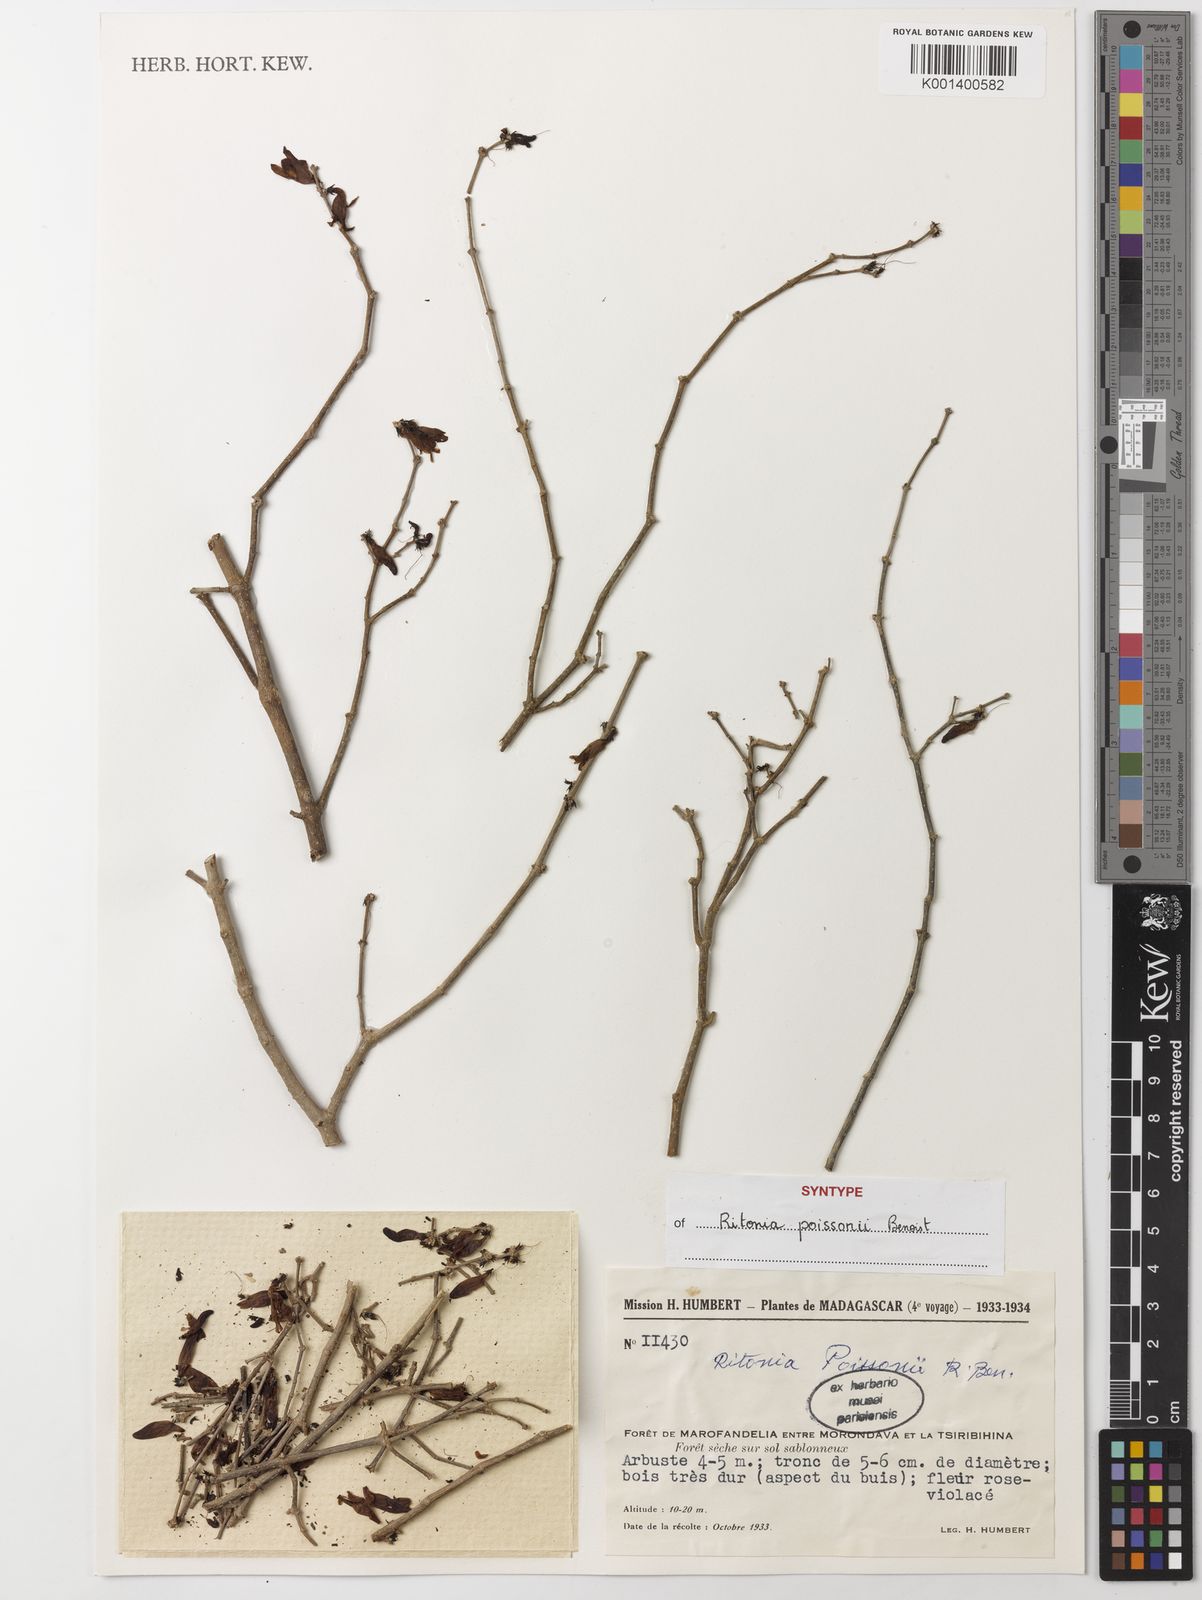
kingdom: Plantae
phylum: Tracheophyta
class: Magnoliopsida
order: Lamiales
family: Acanthaceae
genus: Ritonia
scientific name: Ritonia poissonii
